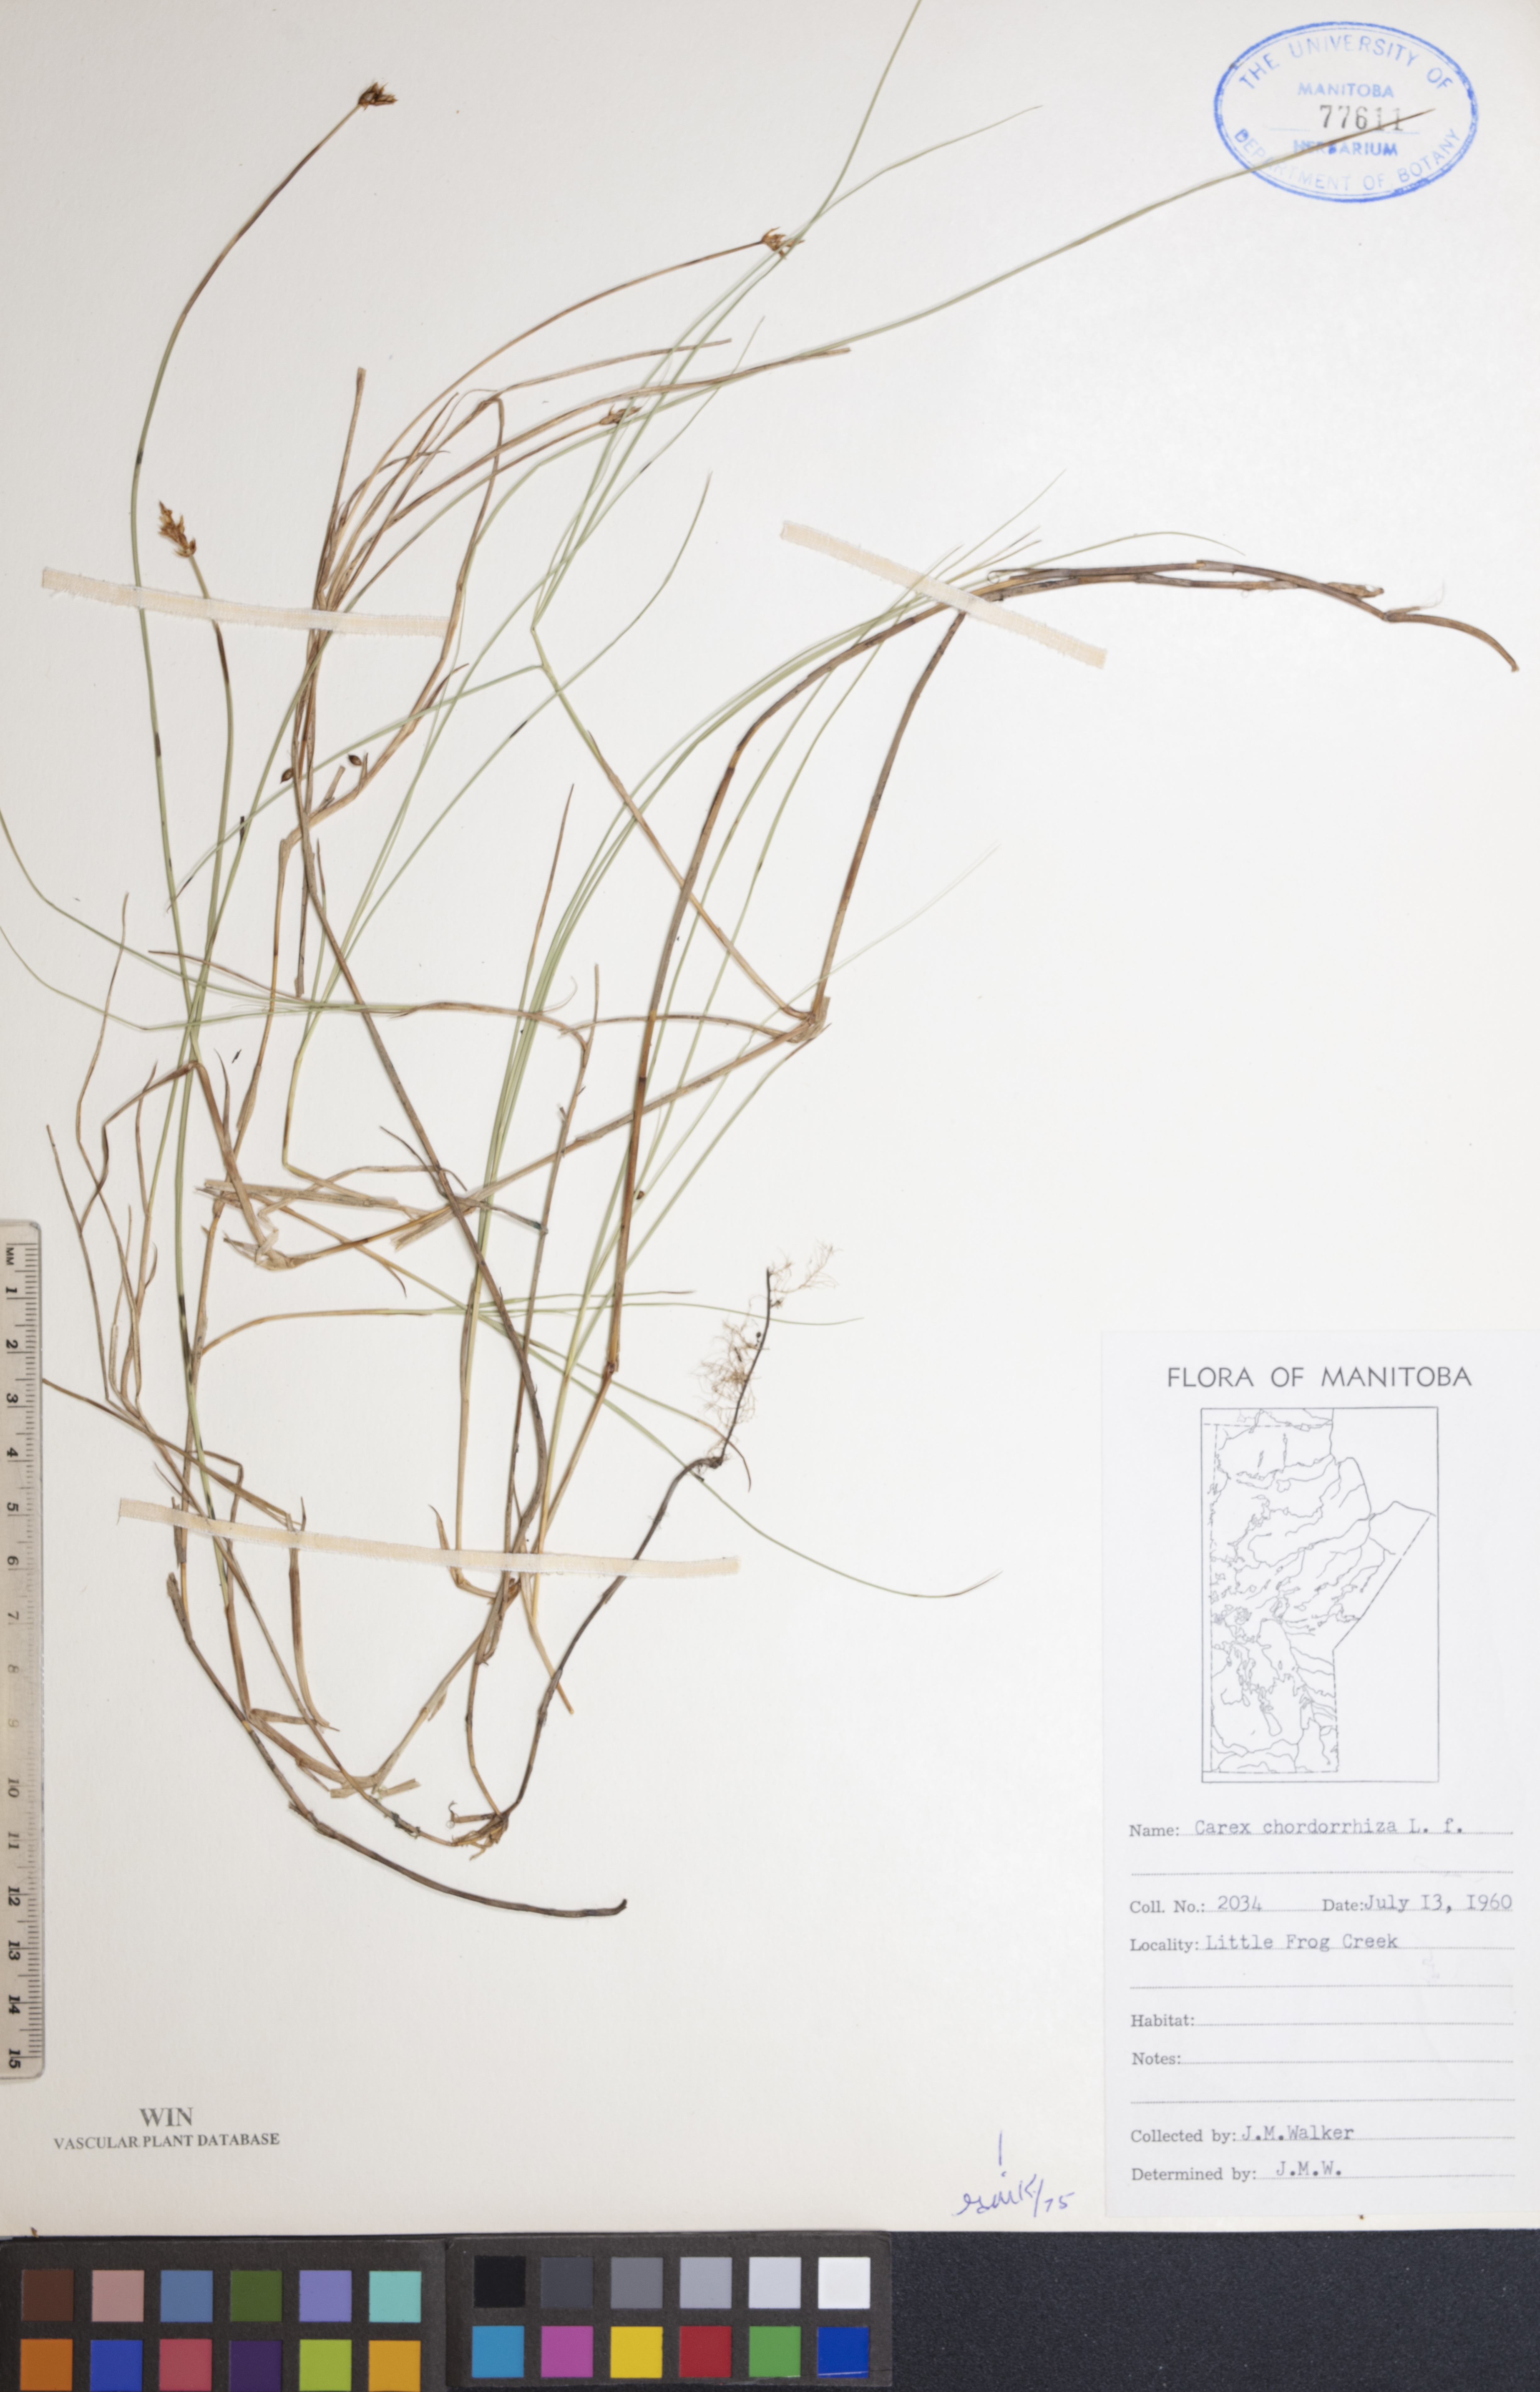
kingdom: Plantae
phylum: Tracheophyta
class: Liliopsida
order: Poales
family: Cyperaceae
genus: Carex
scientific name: Carex chordorrhiza
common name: String sedge
